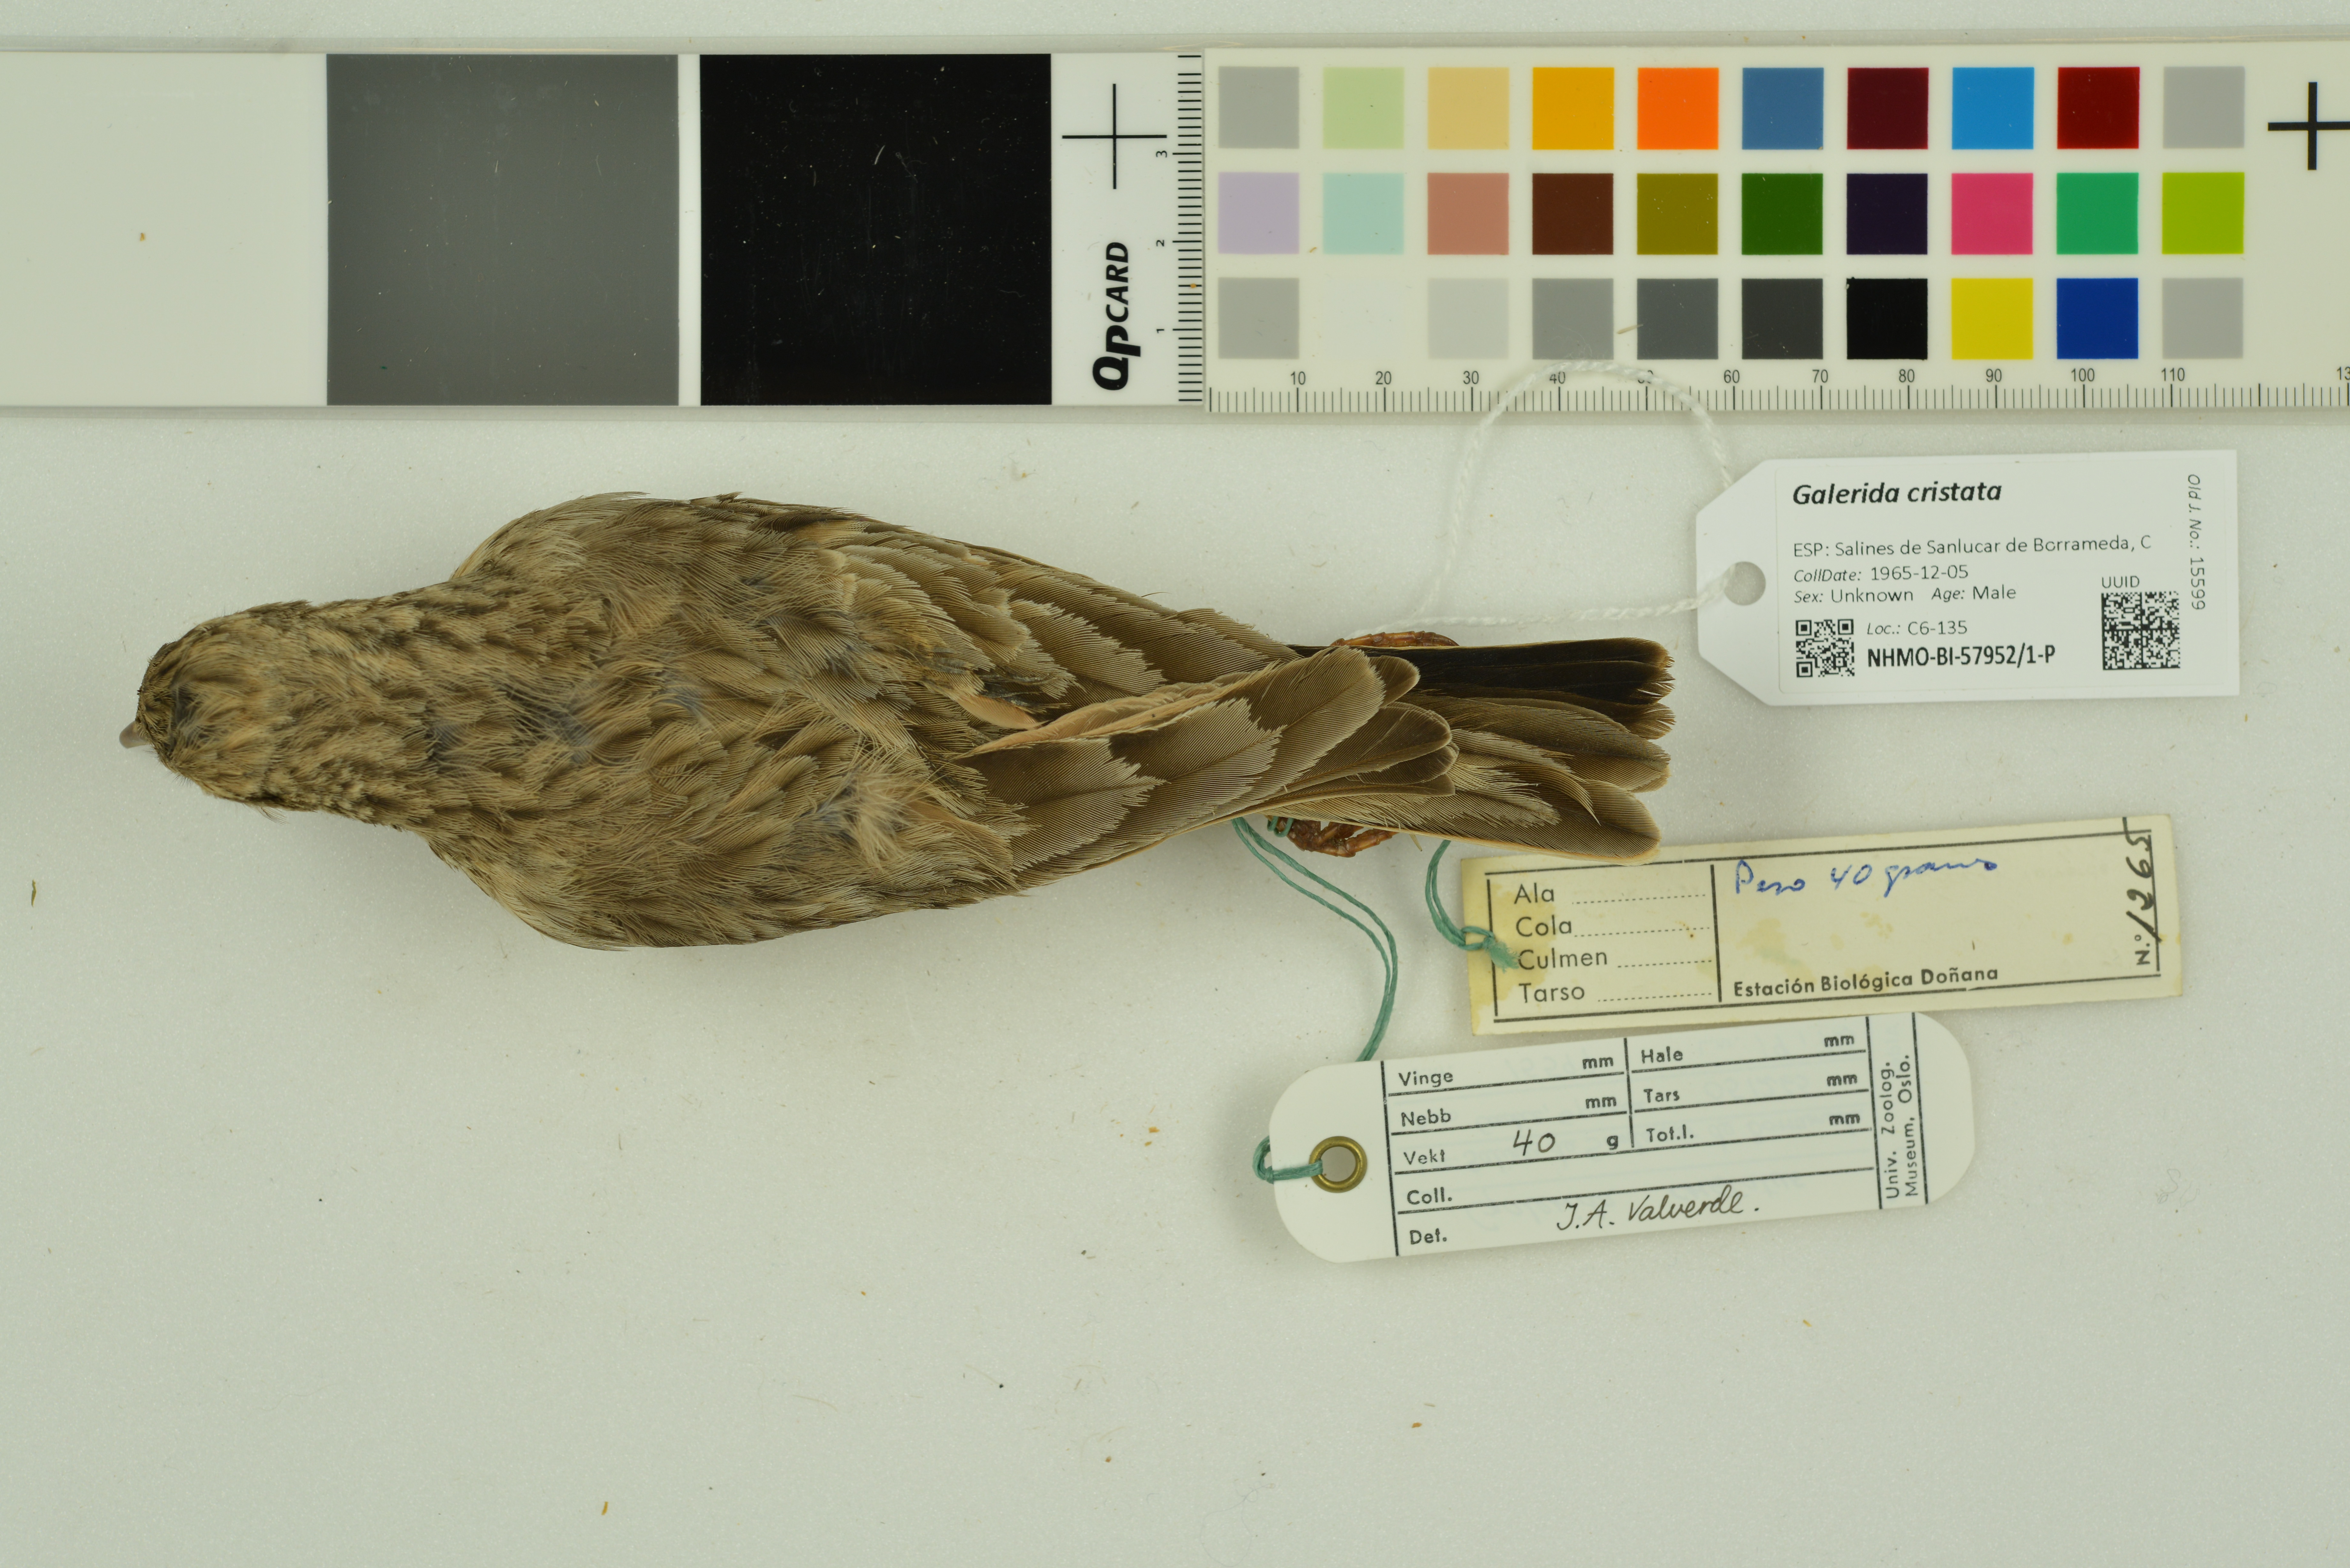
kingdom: Animalia
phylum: Chordata
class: Aves
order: Passeriformes
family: Alaudidae
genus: Galerida
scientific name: Galerida cristata
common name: Crested lark
